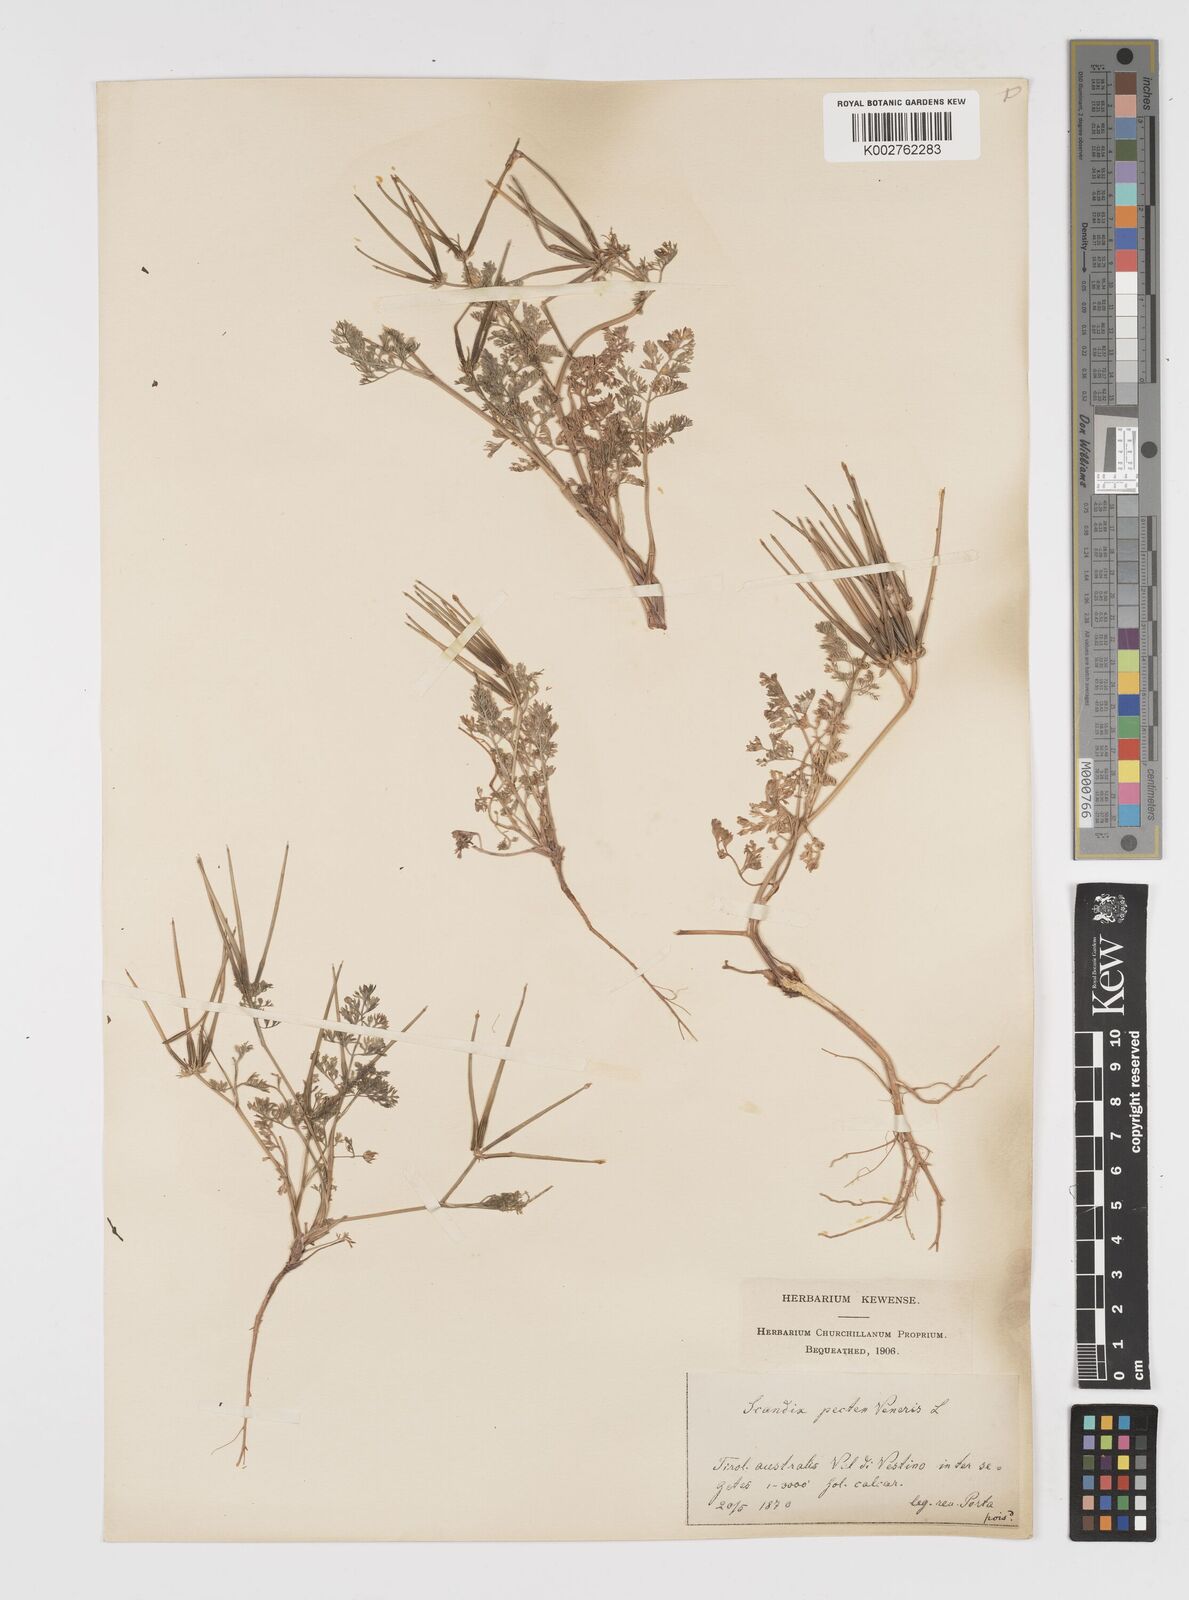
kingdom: Plantae
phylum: Tracheophyta
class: Magnoliopsida
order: Apiales
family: Apiaceae
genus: Scandix
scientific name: Scandix pecten-veneris
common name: Shepherd's-needle
